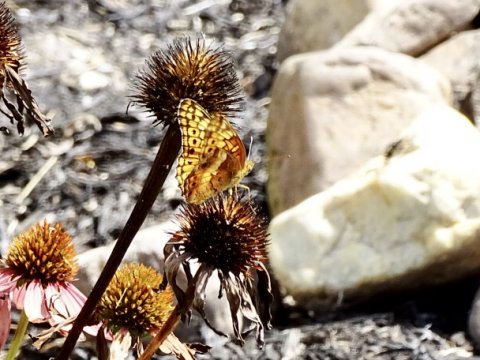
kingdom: Animalia
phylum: Arthropoda
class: Insecta
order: Lepidoptera
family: Nymphalidae
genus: Euptoieta
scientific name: Euptoieta claudia
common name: Variegated Fritillary
